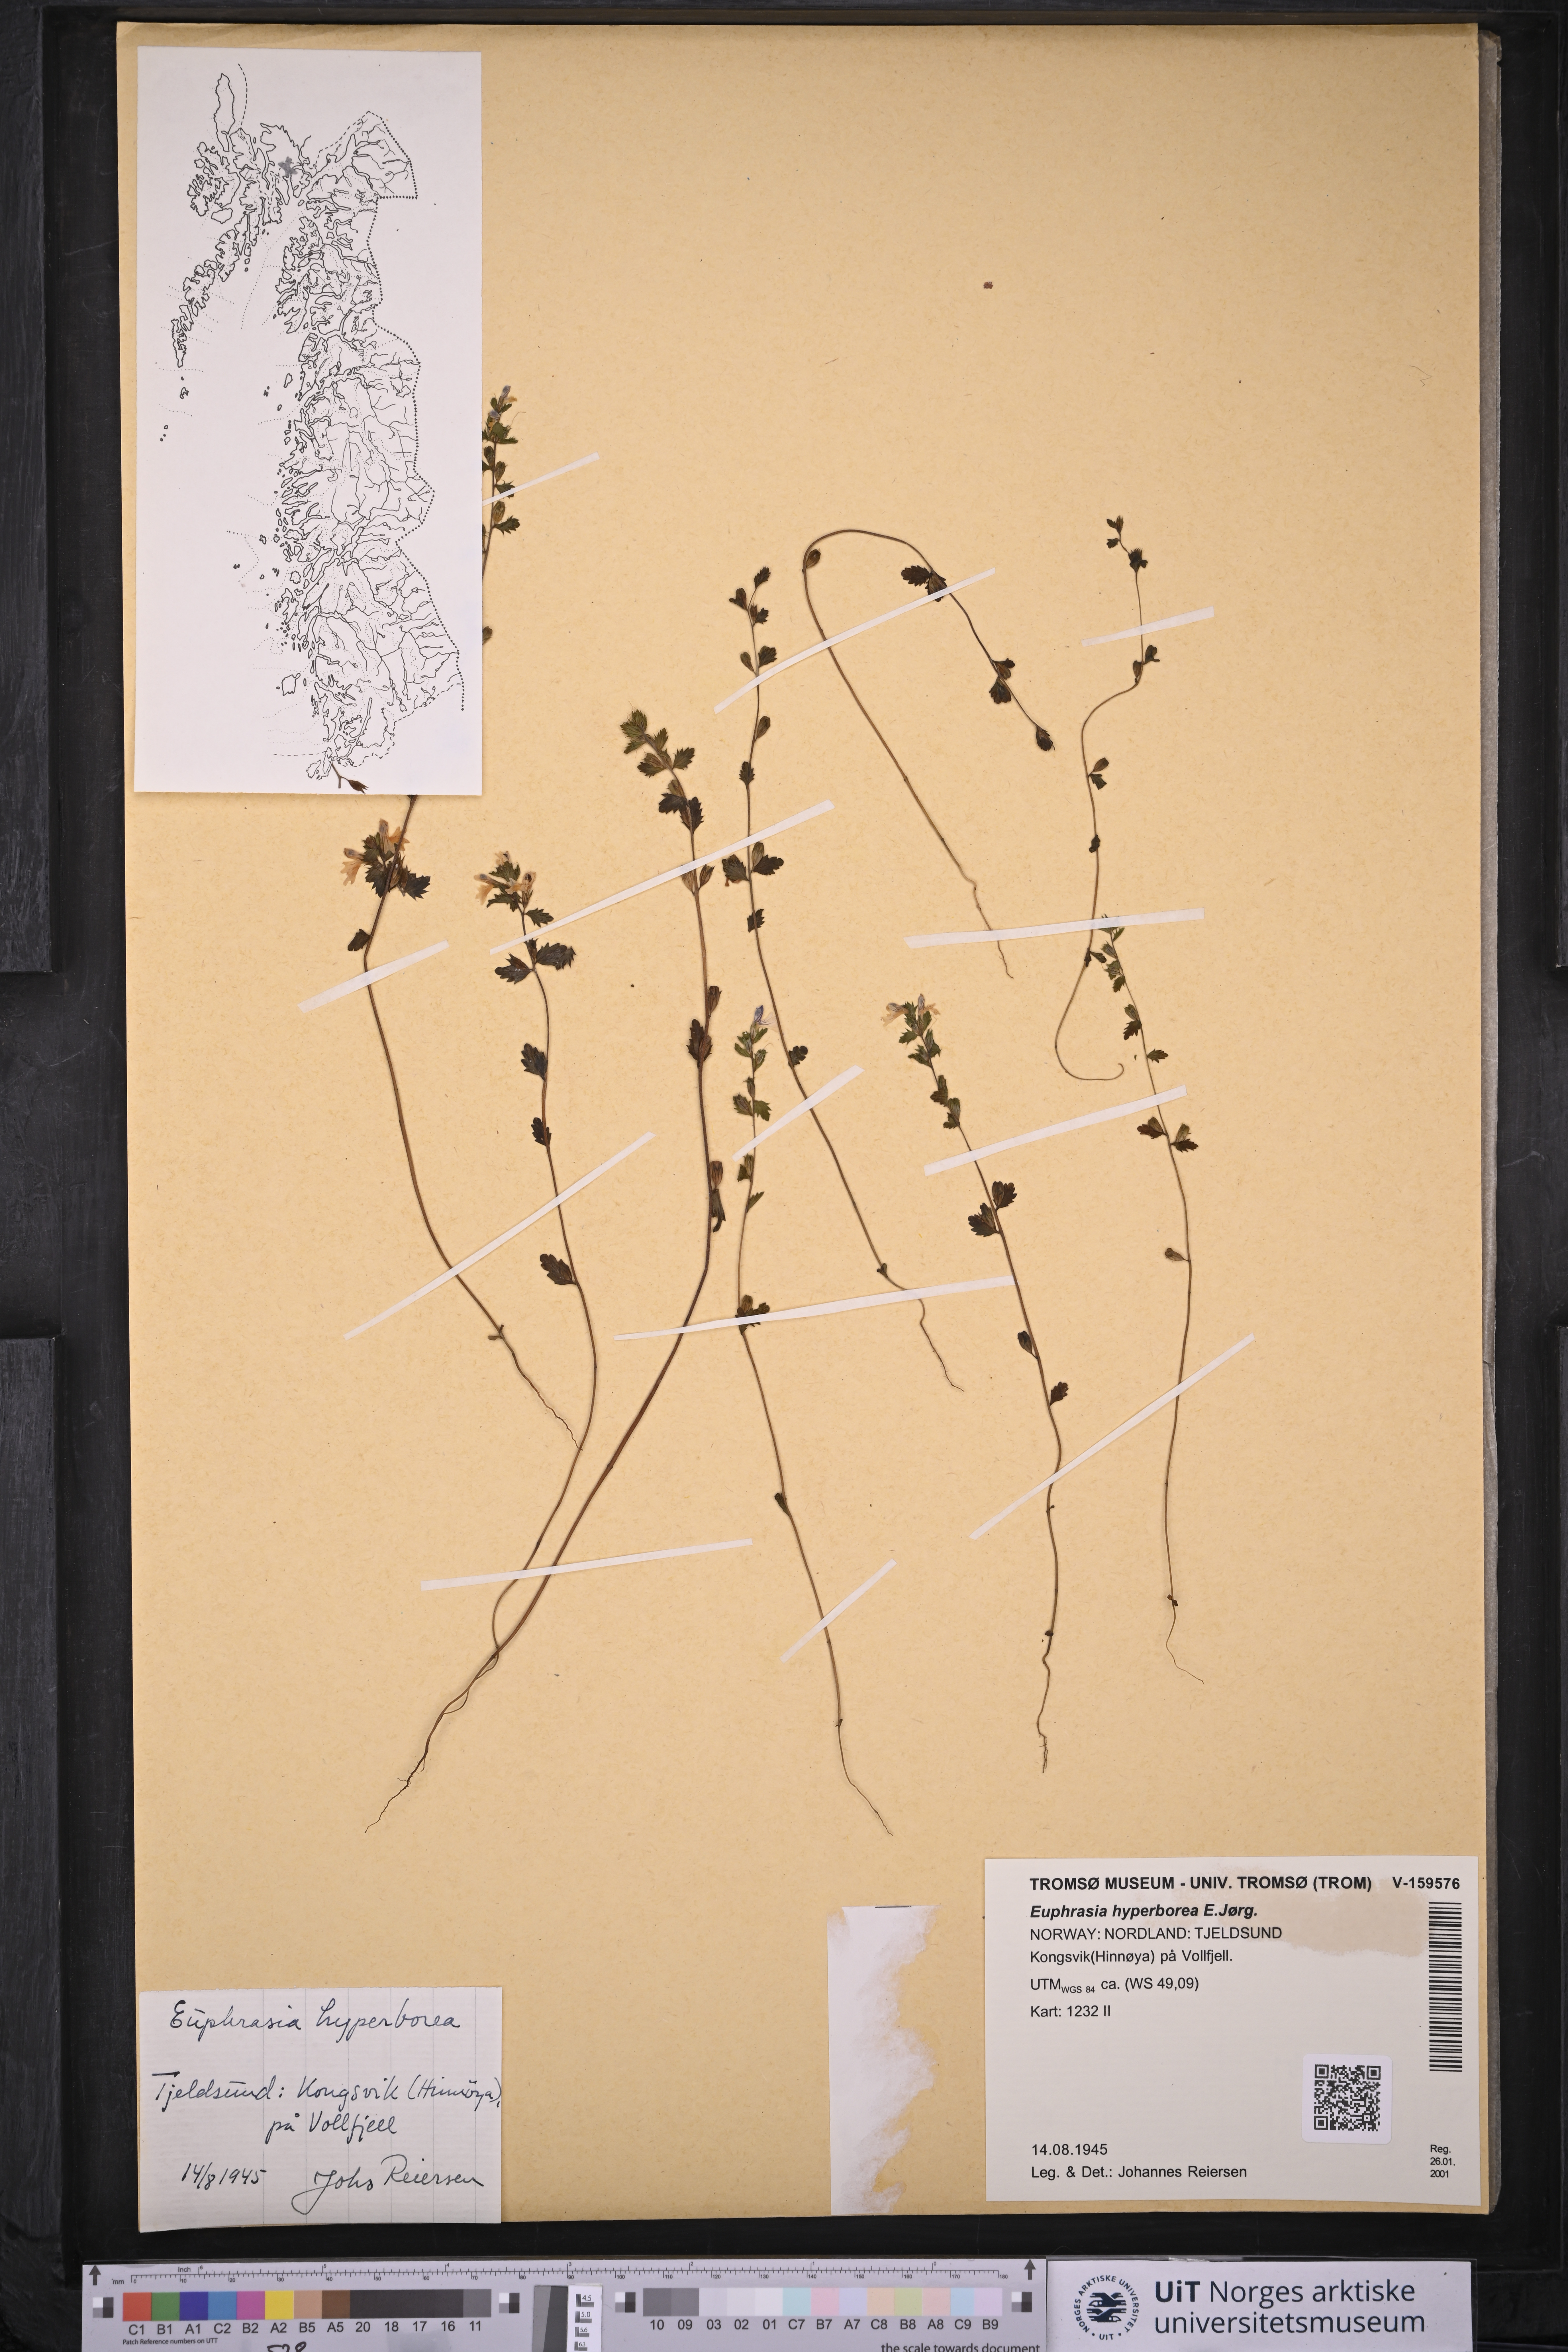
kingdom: Plantae
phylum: Tracheophyta
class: Magnoliopsida
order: Lamiales
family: Orobanchaceae
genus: Euphrasia
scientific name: Euphrasia hyperborea
